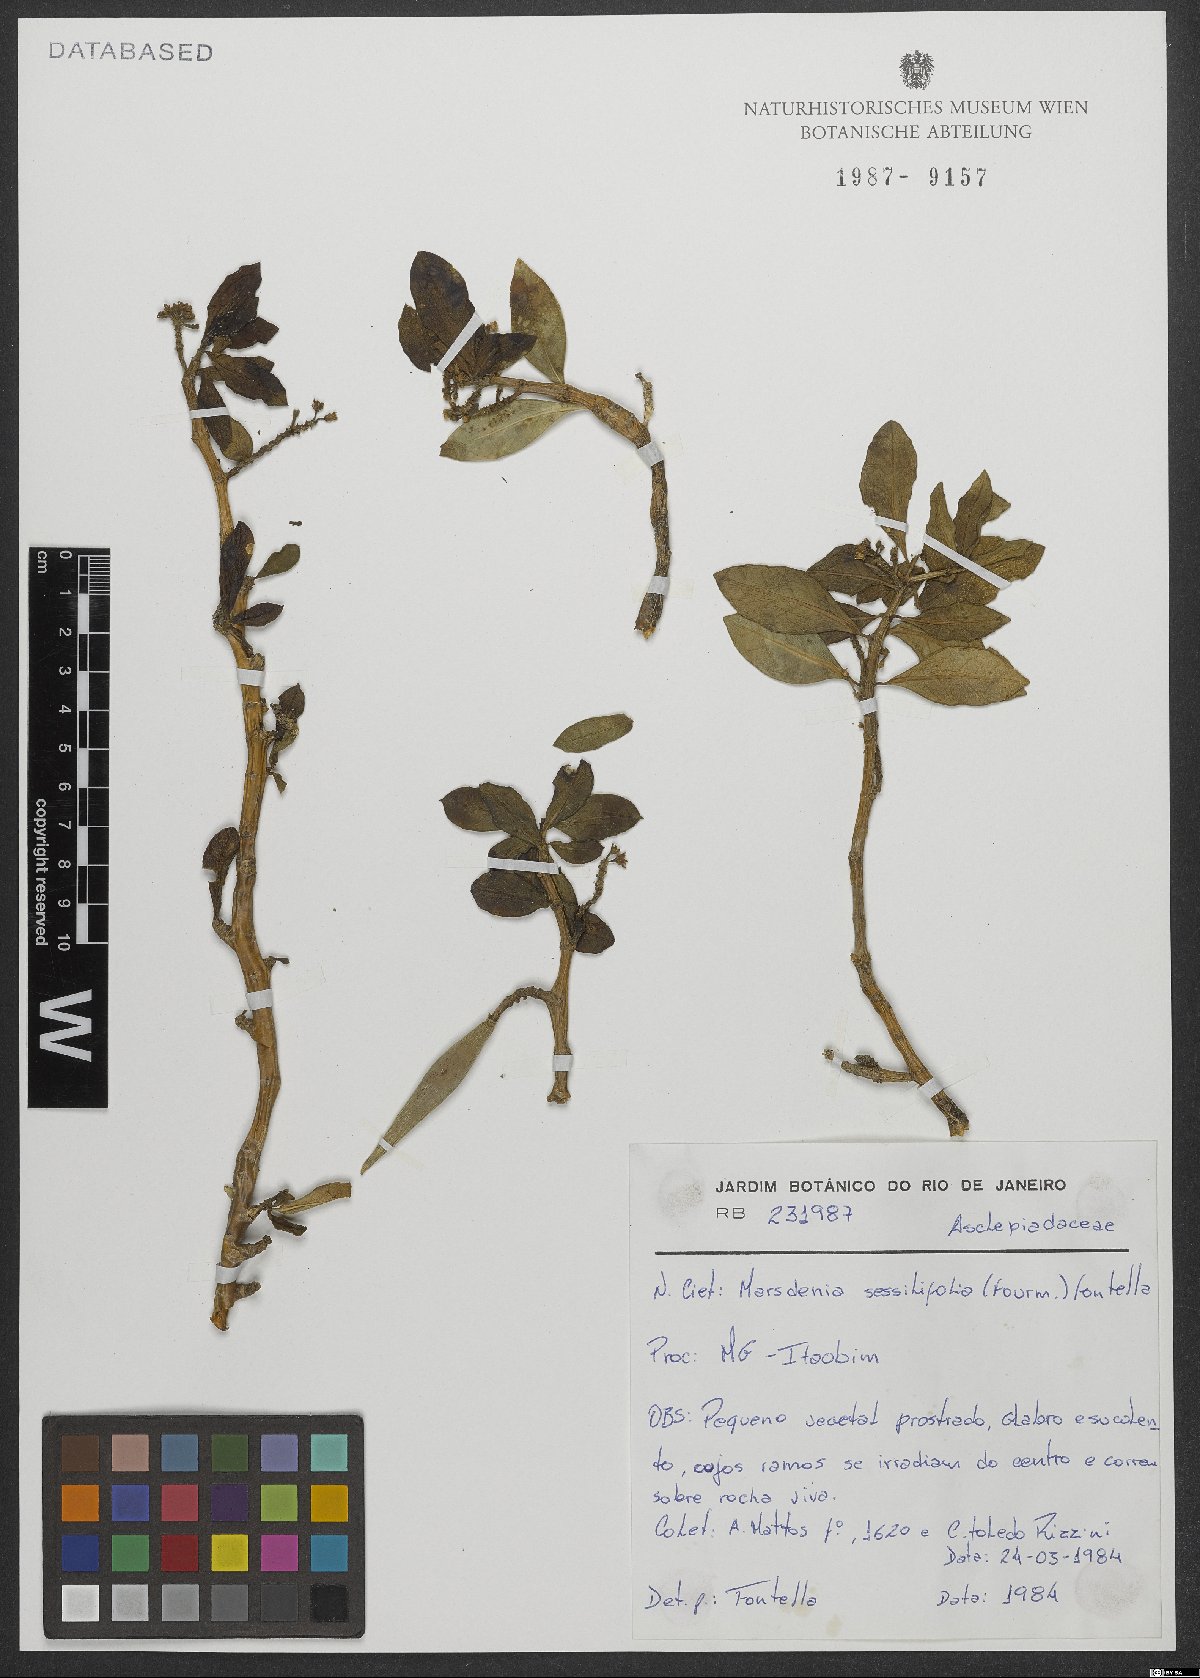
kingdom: Plantae
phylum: Tracheophyta
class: Magnoliopsida
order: Gentianales
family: Apocynaceae
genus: Ruehssia
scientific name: Ruehssia sessilifolia
